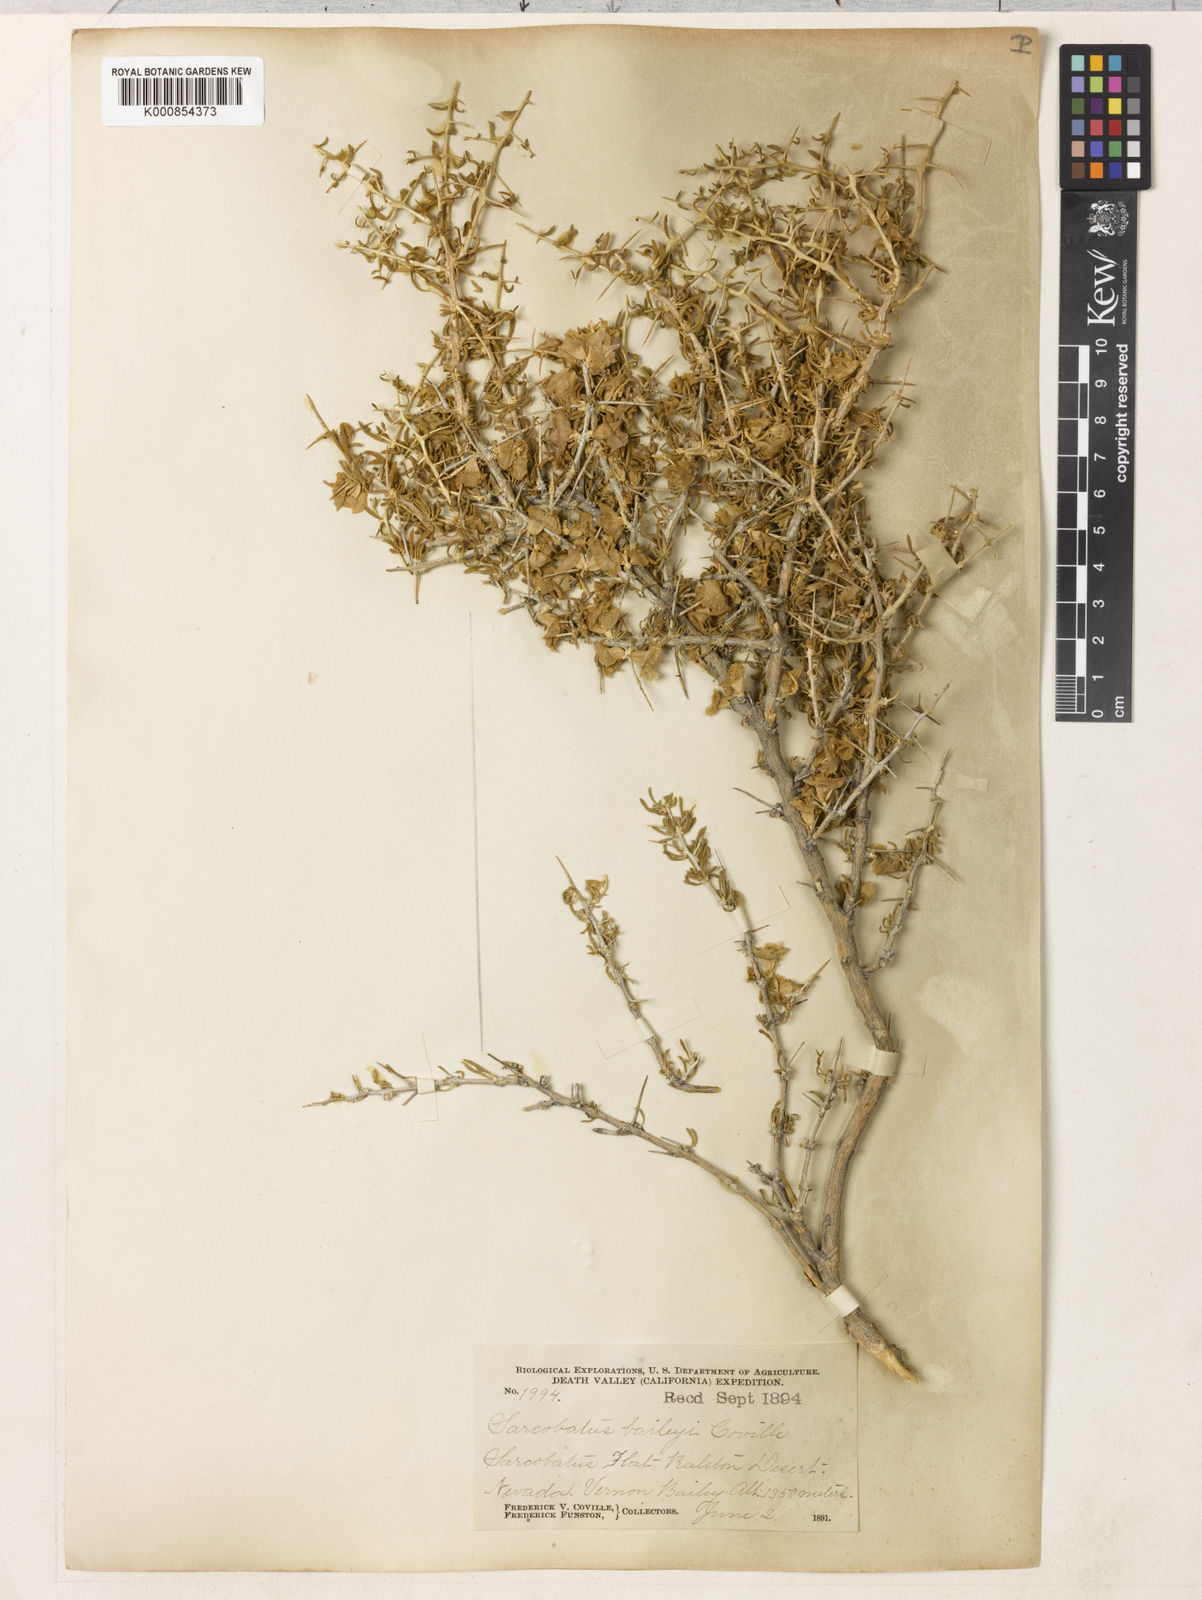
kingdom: Plantae
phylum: Tracheophyta
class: Magnoliopsida
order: Caryophyllales
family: Sarcobataceae
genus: Sarcobatus
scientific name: Sarcobatus baileyi
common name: Bailey greasewood
